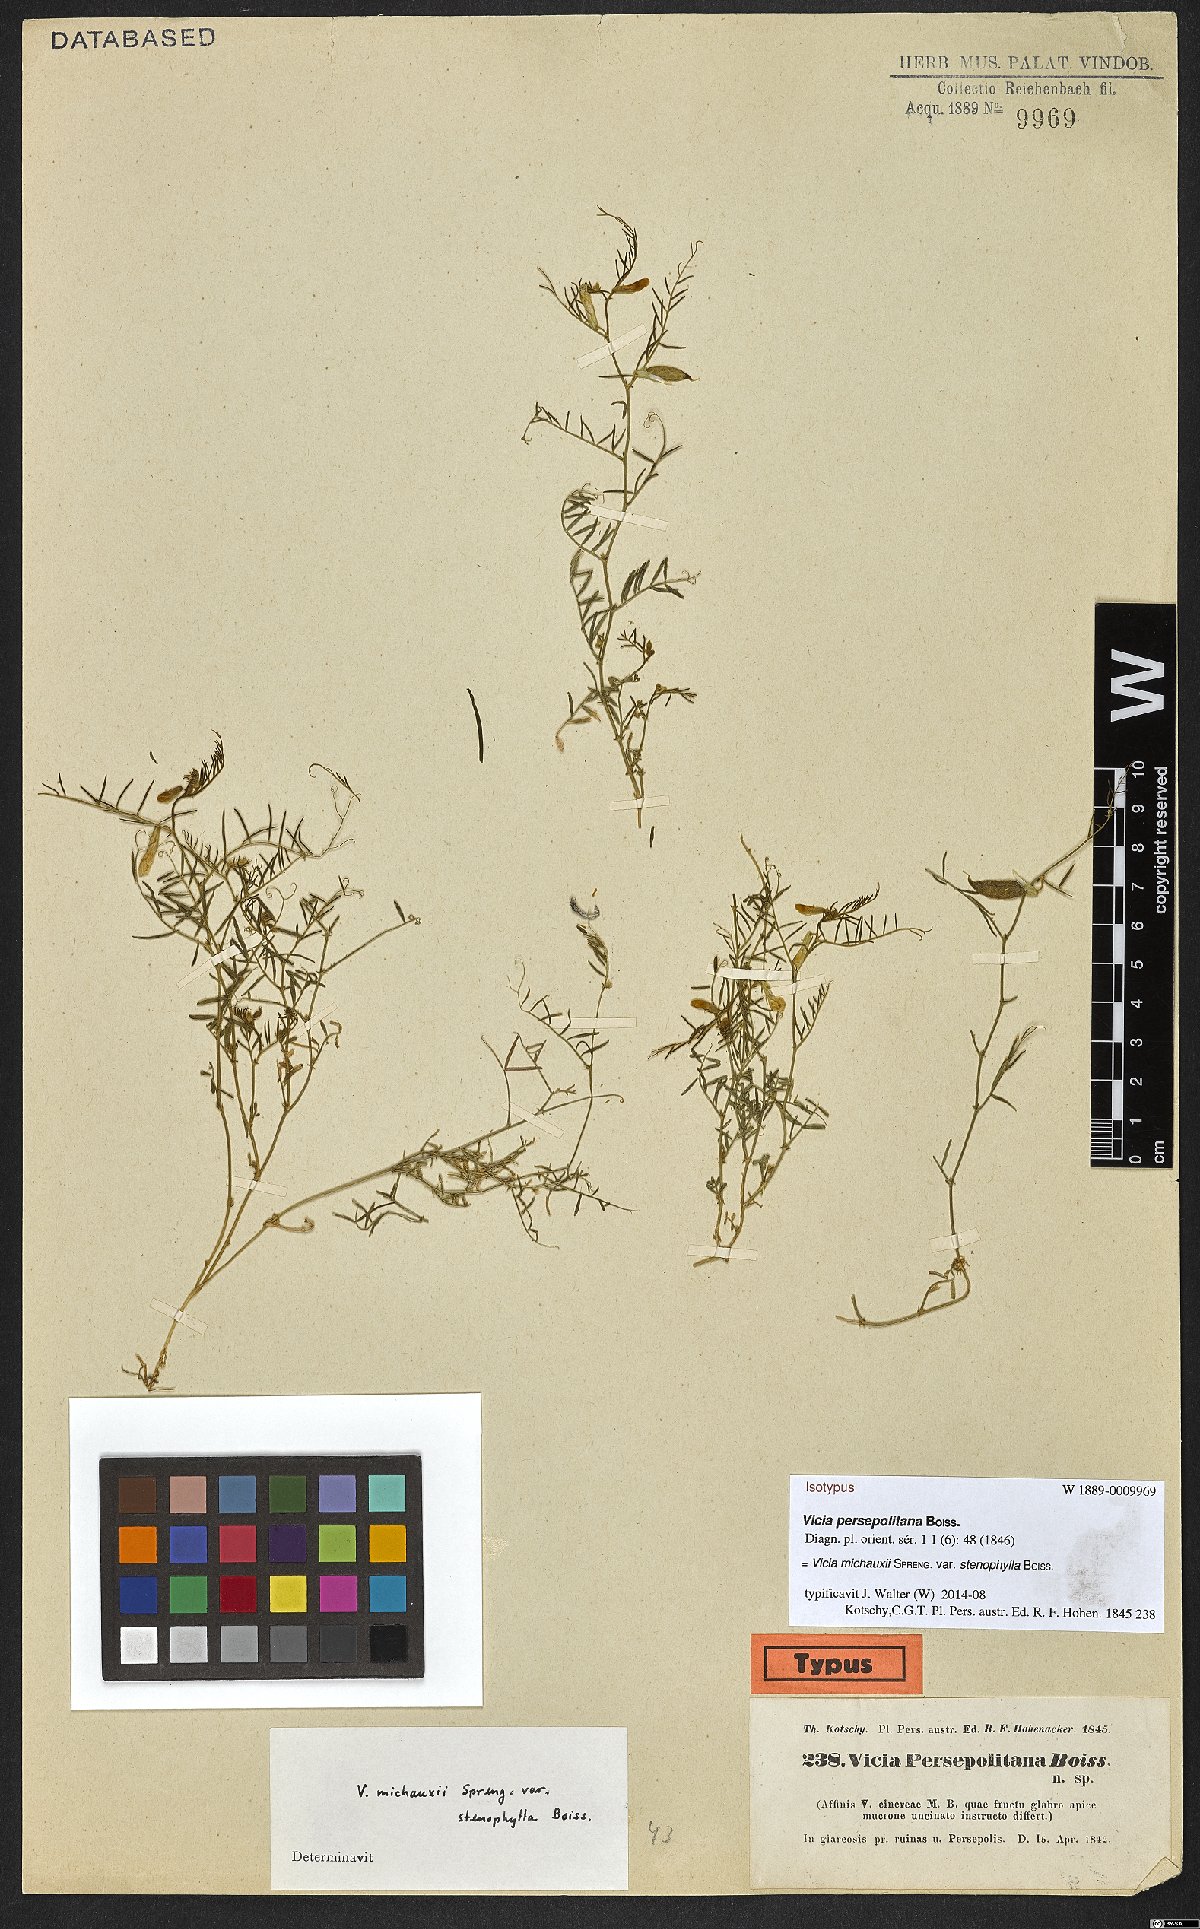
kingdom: Plantae
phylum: Tracheophyta
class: Magnoliopsida
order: Fabales
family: Fabaceae
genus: Vicia
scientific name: Vicia michauxii
